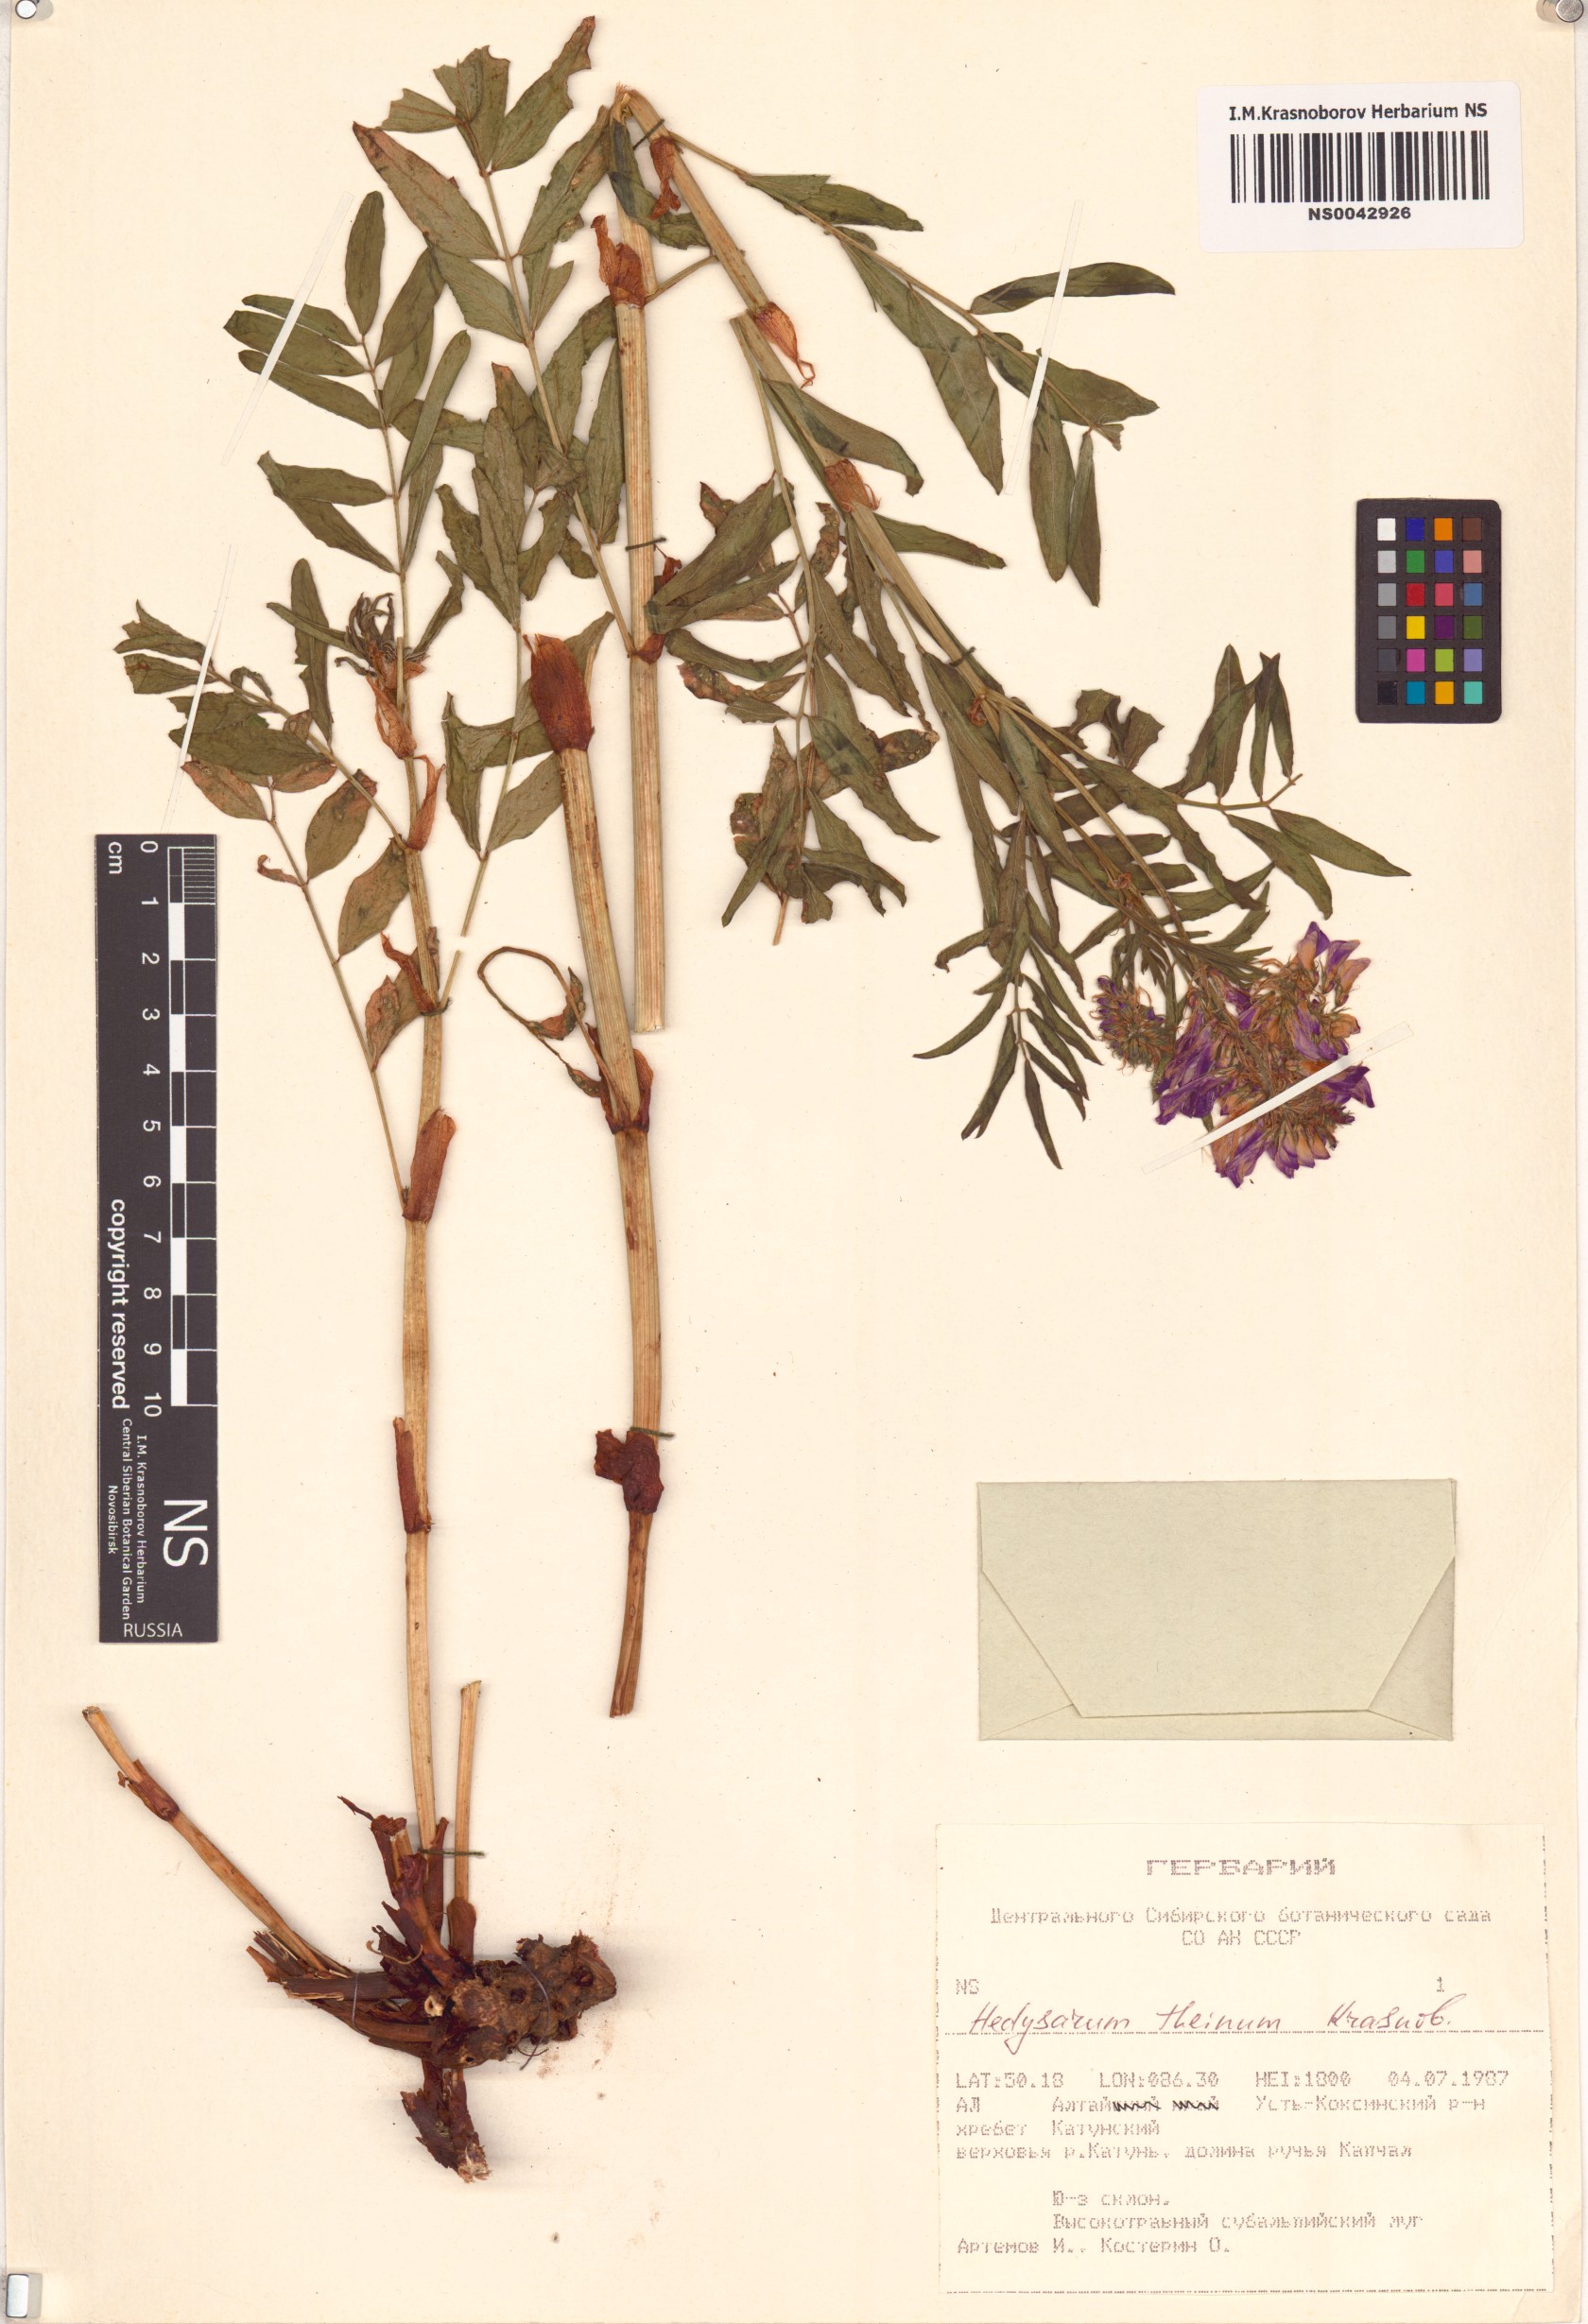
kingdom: Plantae
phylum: Tracheophyta
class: Magnoliopsida
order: Fabales
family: Fabaceae
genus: Hedysarum
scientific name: Hedysarum theinum
